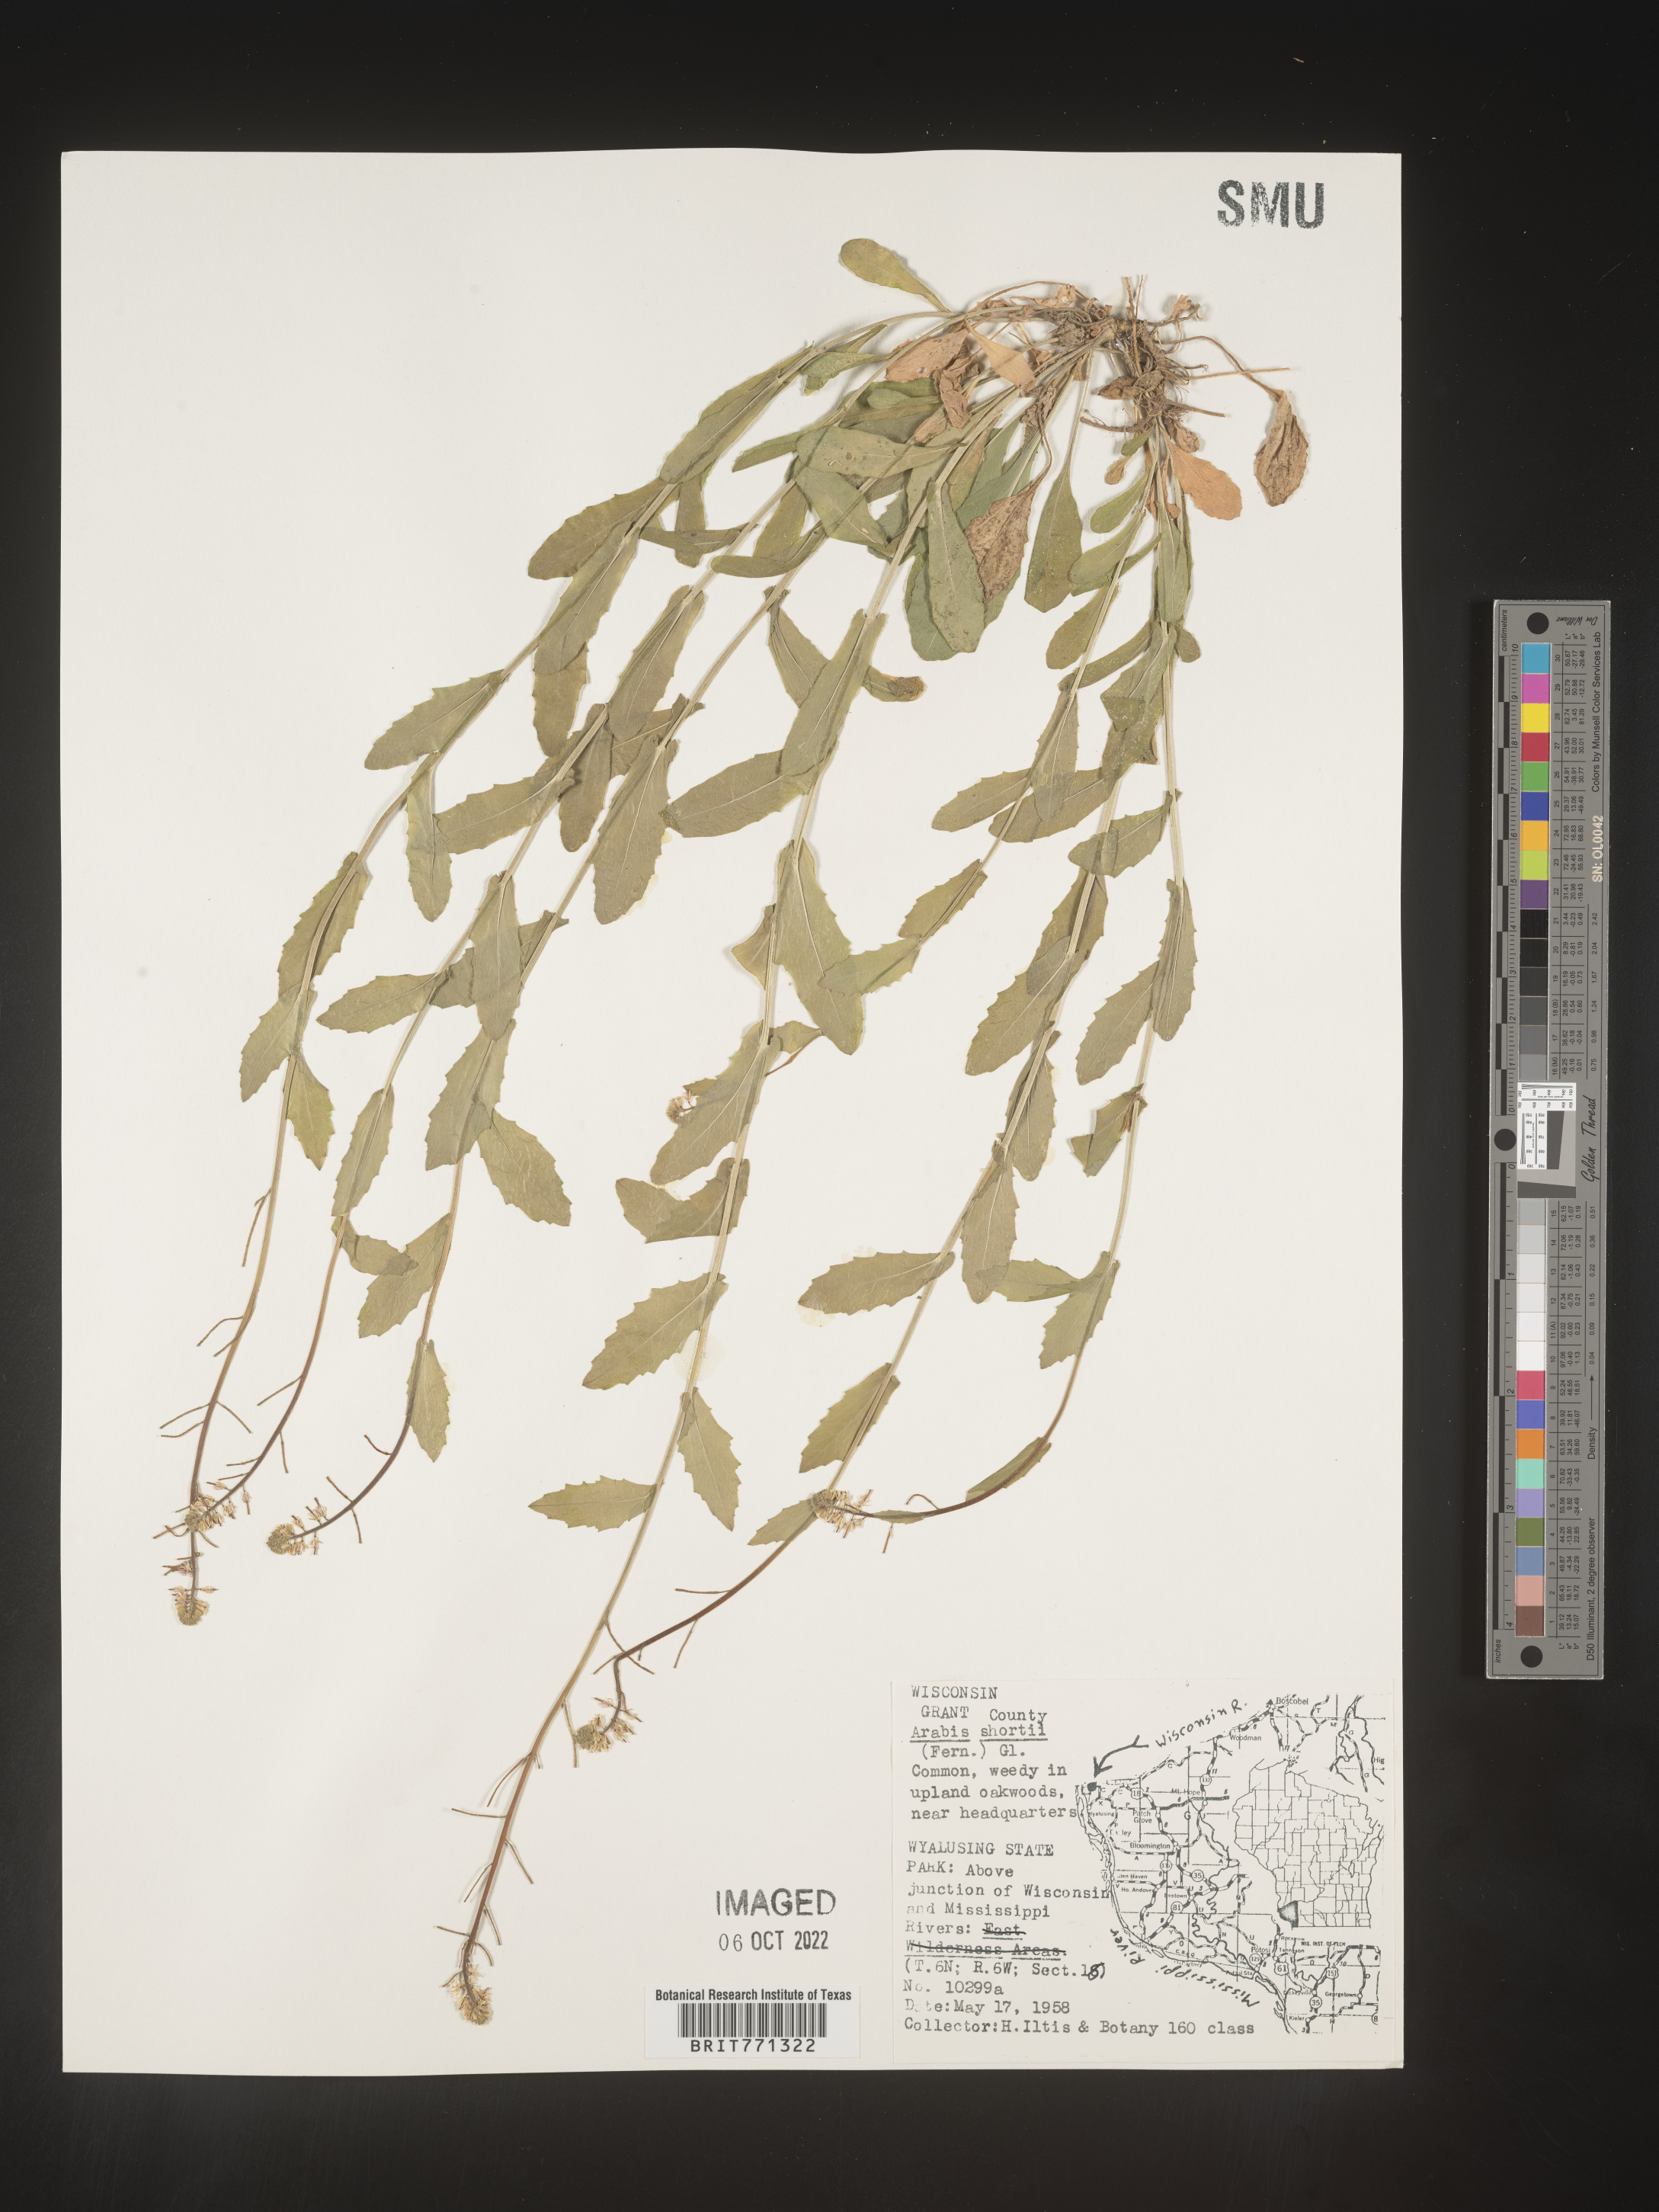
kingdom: Plantae
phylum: Tracheophyta
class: Magnoliopsida
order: Brassicales
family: Brassicaceae
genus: Arabis
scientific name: Arabis
